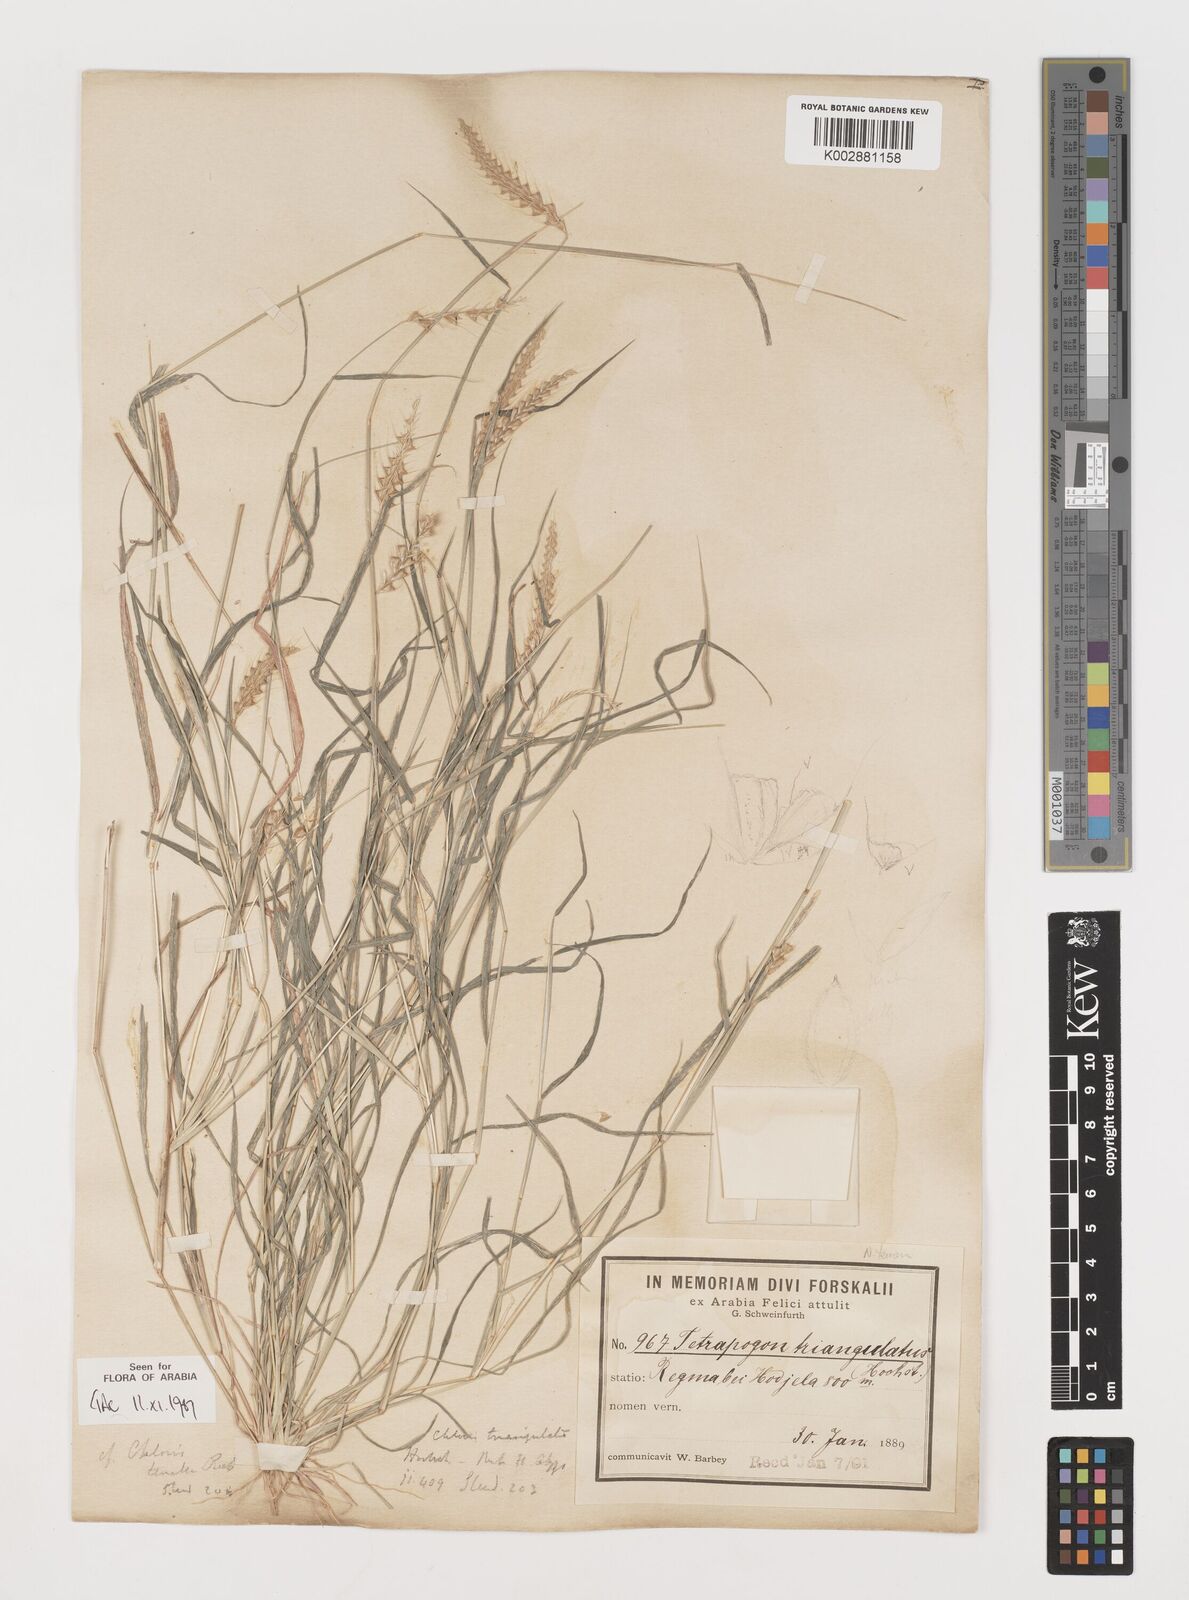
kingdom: Plantae
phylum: Tracheophyta
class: Liliopsida
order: Poales
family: Poaceae
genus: Tetrapogon
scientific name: Tetrapogon tenellus
